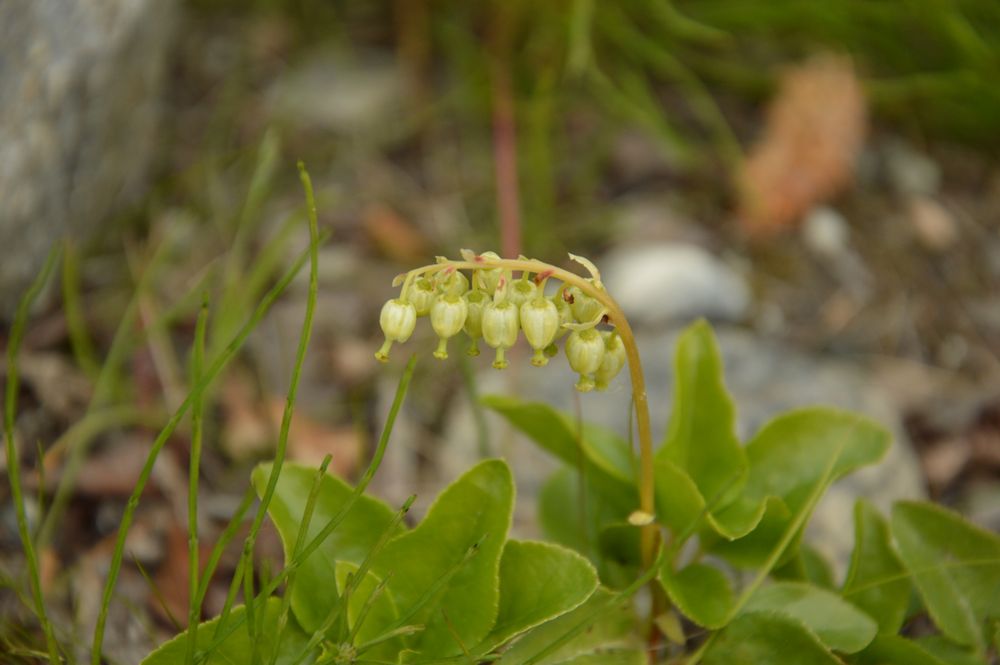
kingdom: Plantae
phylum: Tracheophyta
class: Magnoliopsida
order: Ericales
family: Ericaceae
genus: Orthilia
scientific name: Orthilia secunda
